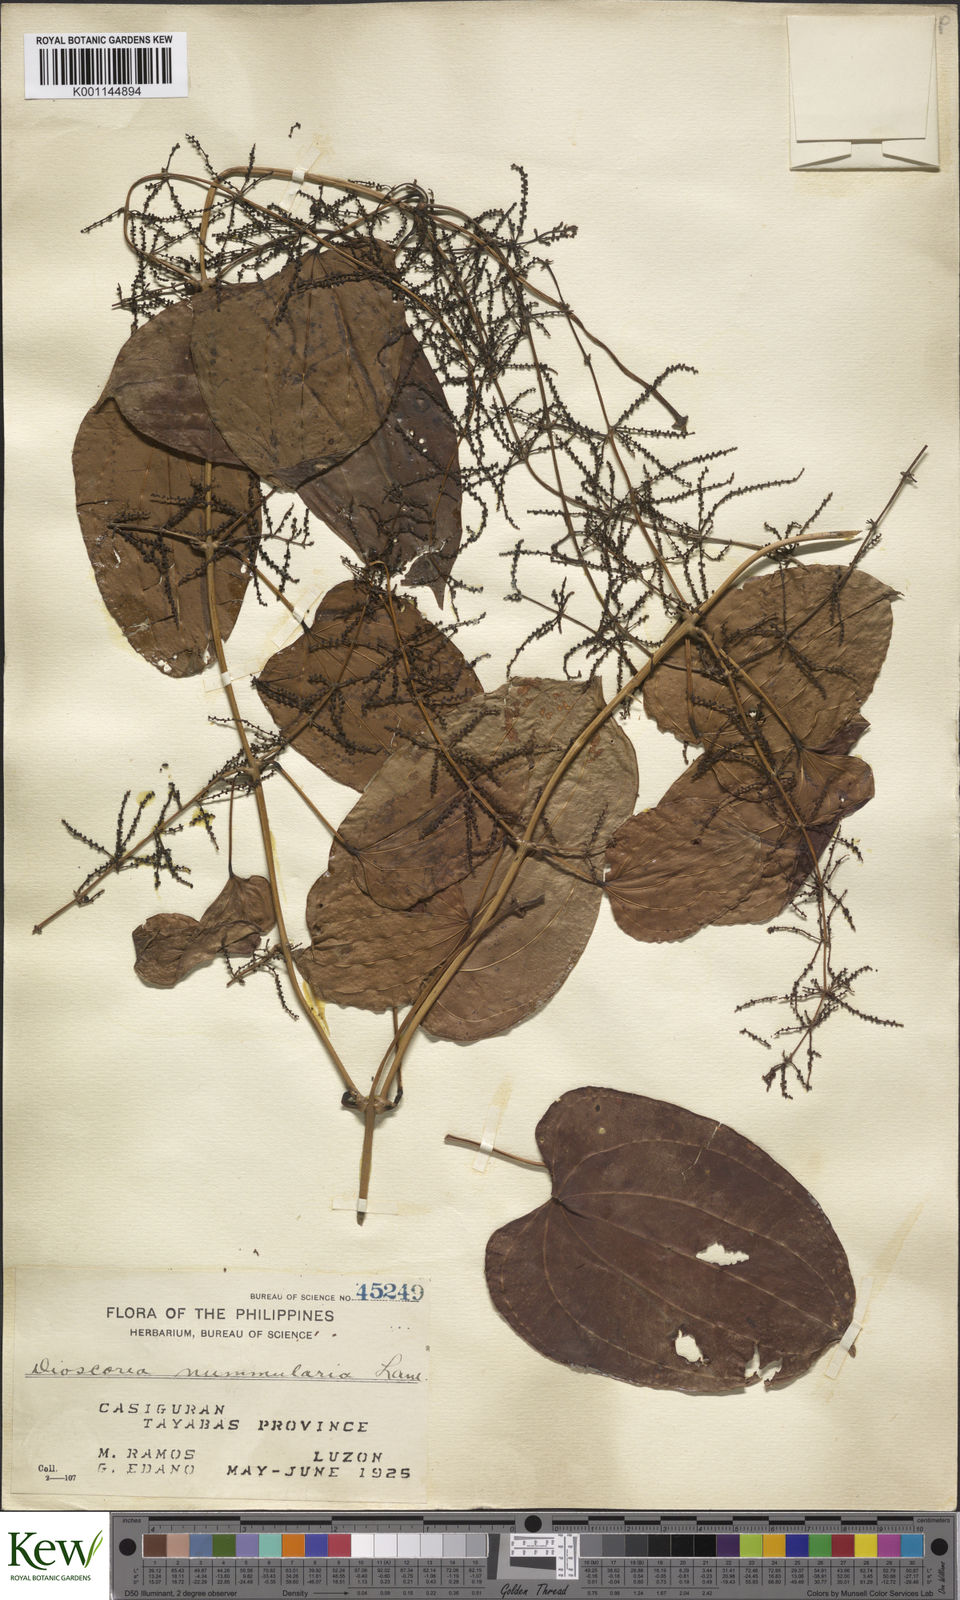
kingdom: Plantae
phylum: Tracheophyta
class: Liliopsida
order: Dioscoreales
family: Dioscoreaceae
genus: Dioscorea
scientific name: Dioscorea nummularia
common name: Pacific yam
